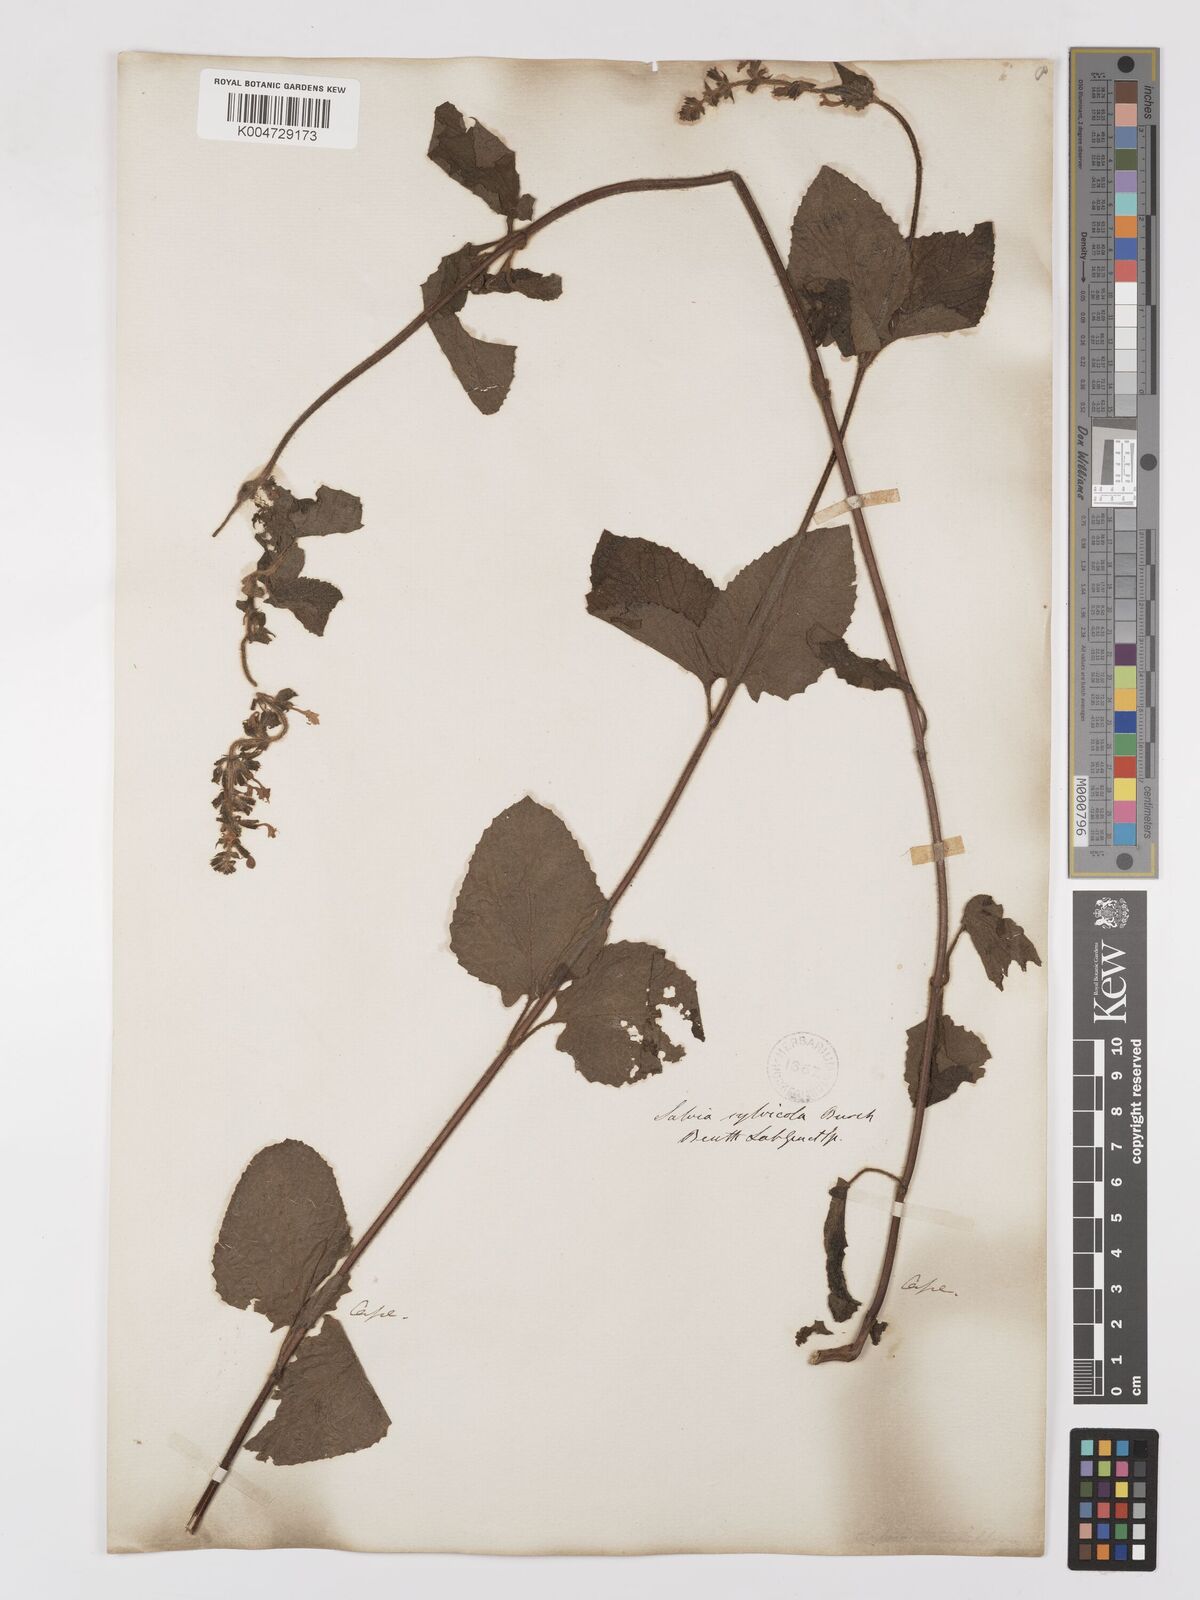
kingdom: Plantae
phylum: Tracheophyta
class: Magnoliopsida
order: Lamiales
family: Lamiaceae
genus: Salvia
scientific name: Salvia aurita
